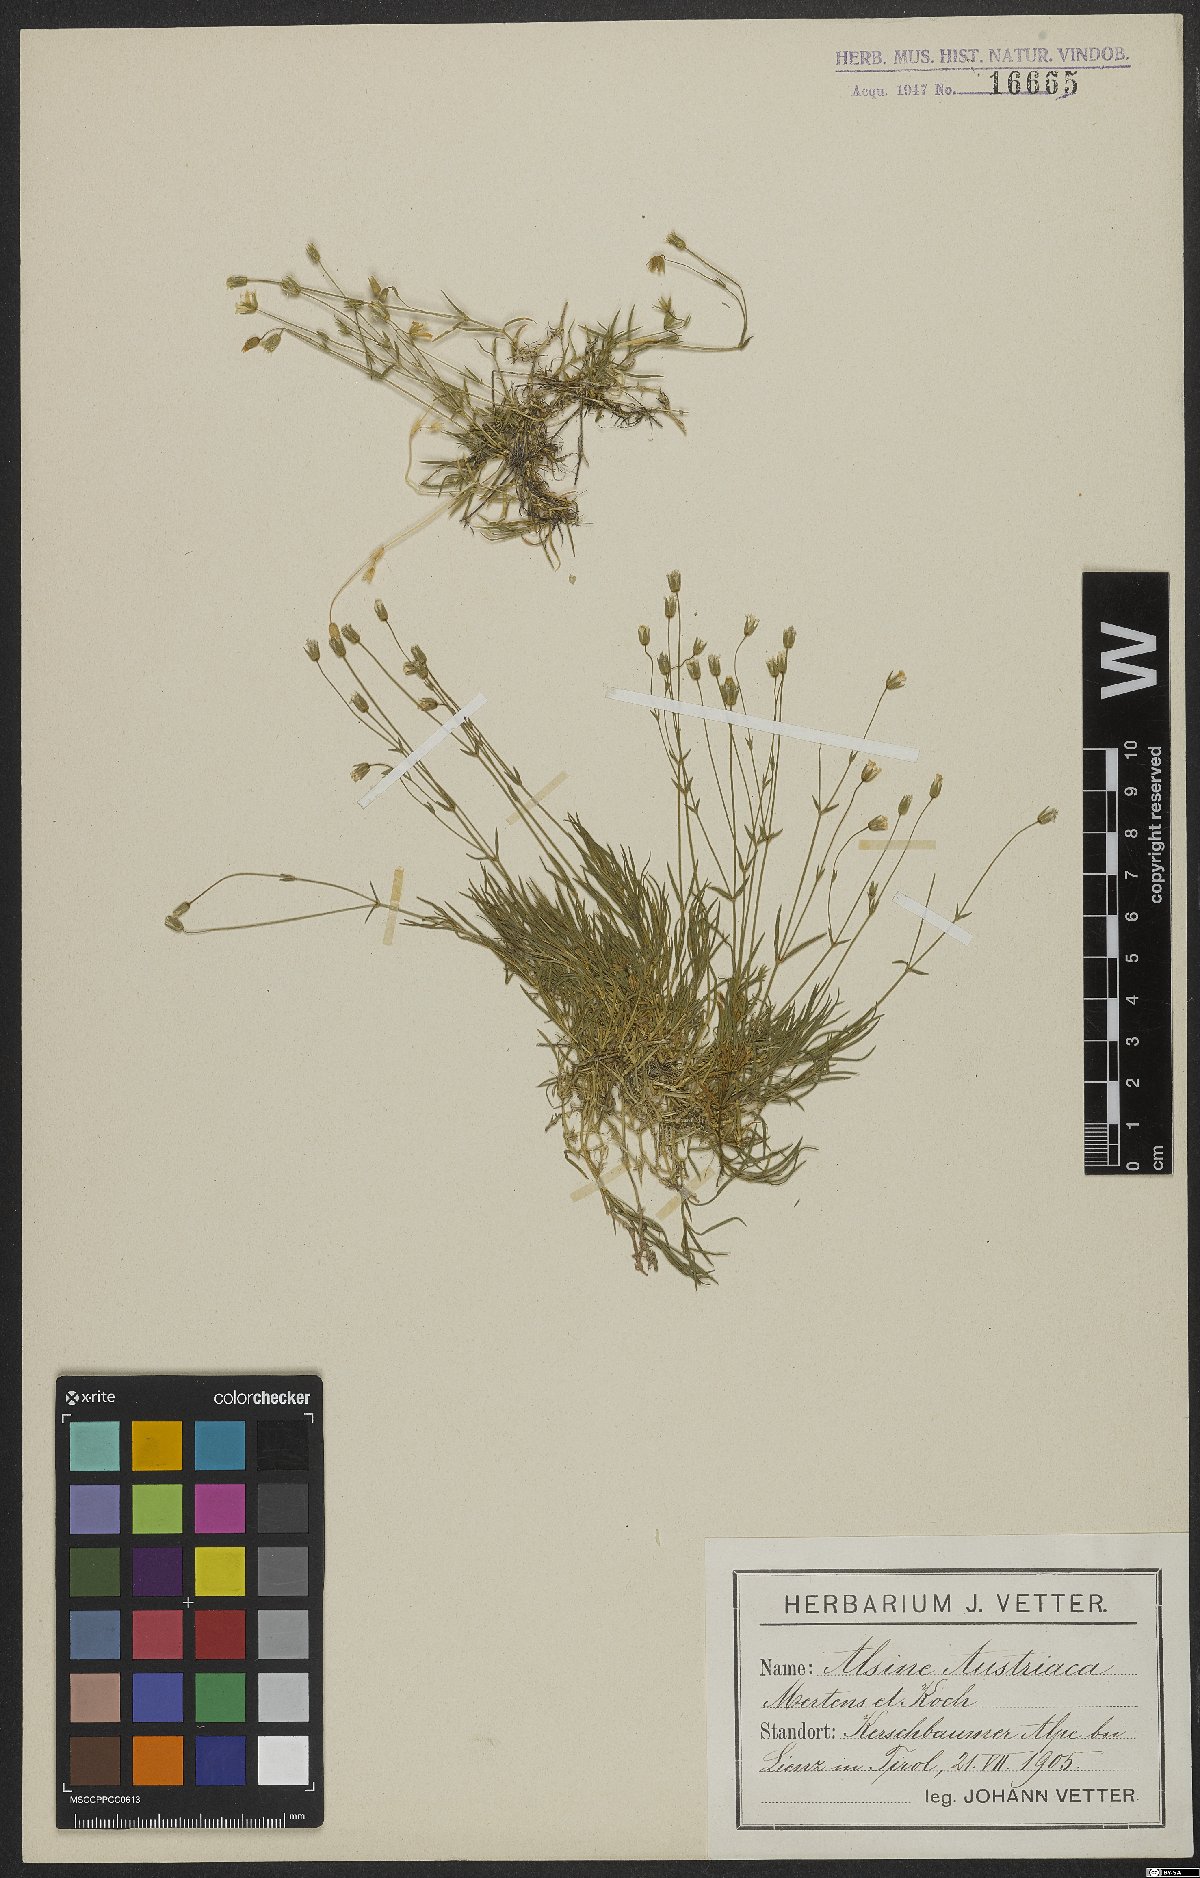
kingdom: Plantae
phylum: Tracheophyta
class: Magnoliopsida
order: Caryophyllales
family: Caryophyllaceae
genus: Sabulina
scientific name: Sabulina austriaca
